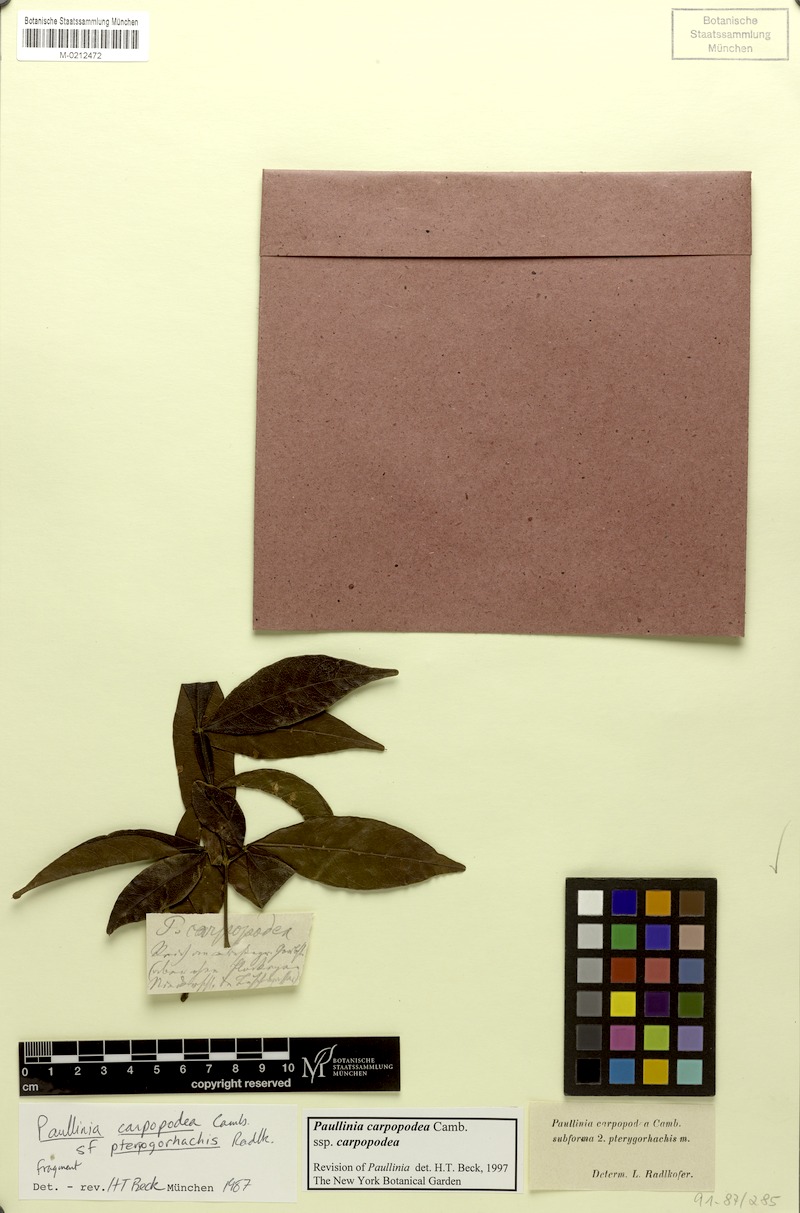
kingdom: Plantae
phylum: Tracheophyta
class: Magnoliopsida
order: Sapindales
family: Sapindaceae
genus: Paullinia
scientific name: Paullinia carpopoda
